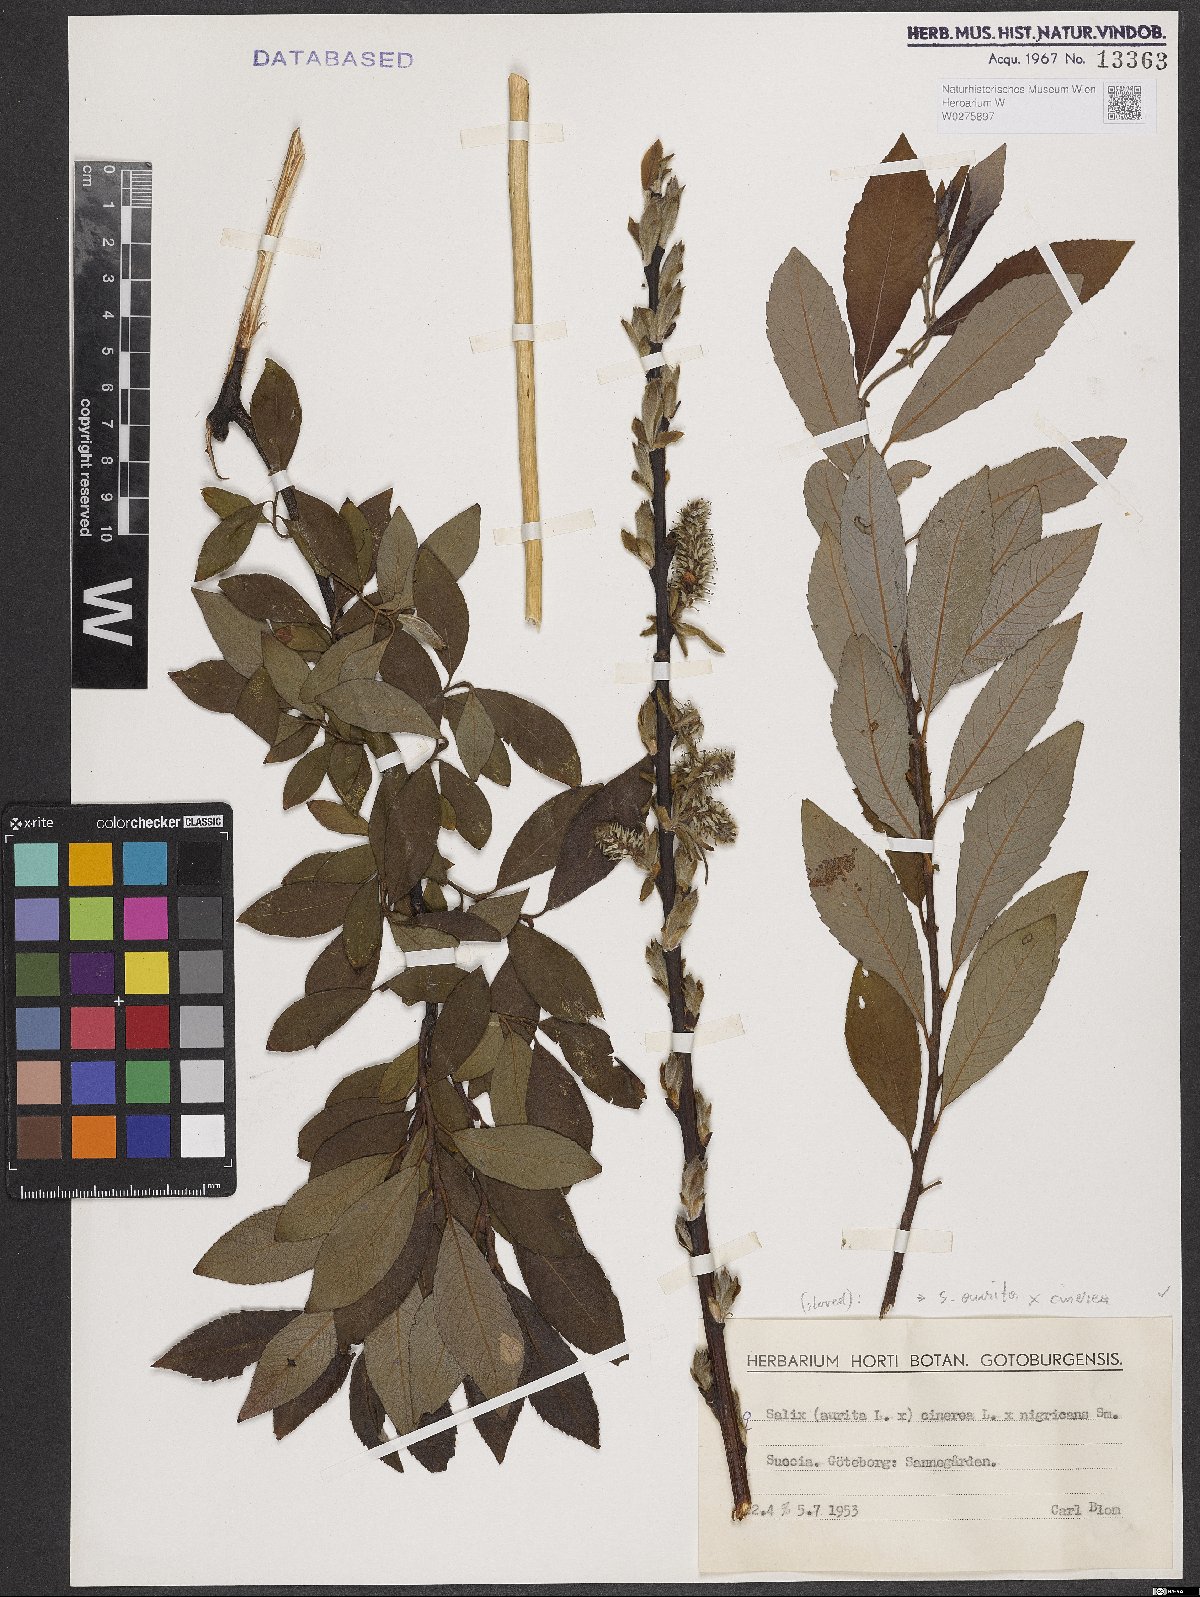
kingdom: Plantae
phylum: Tracheophyta
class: Magnoliopsida
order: Malpighiales
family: Salicaceae
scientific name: Salicaceae
